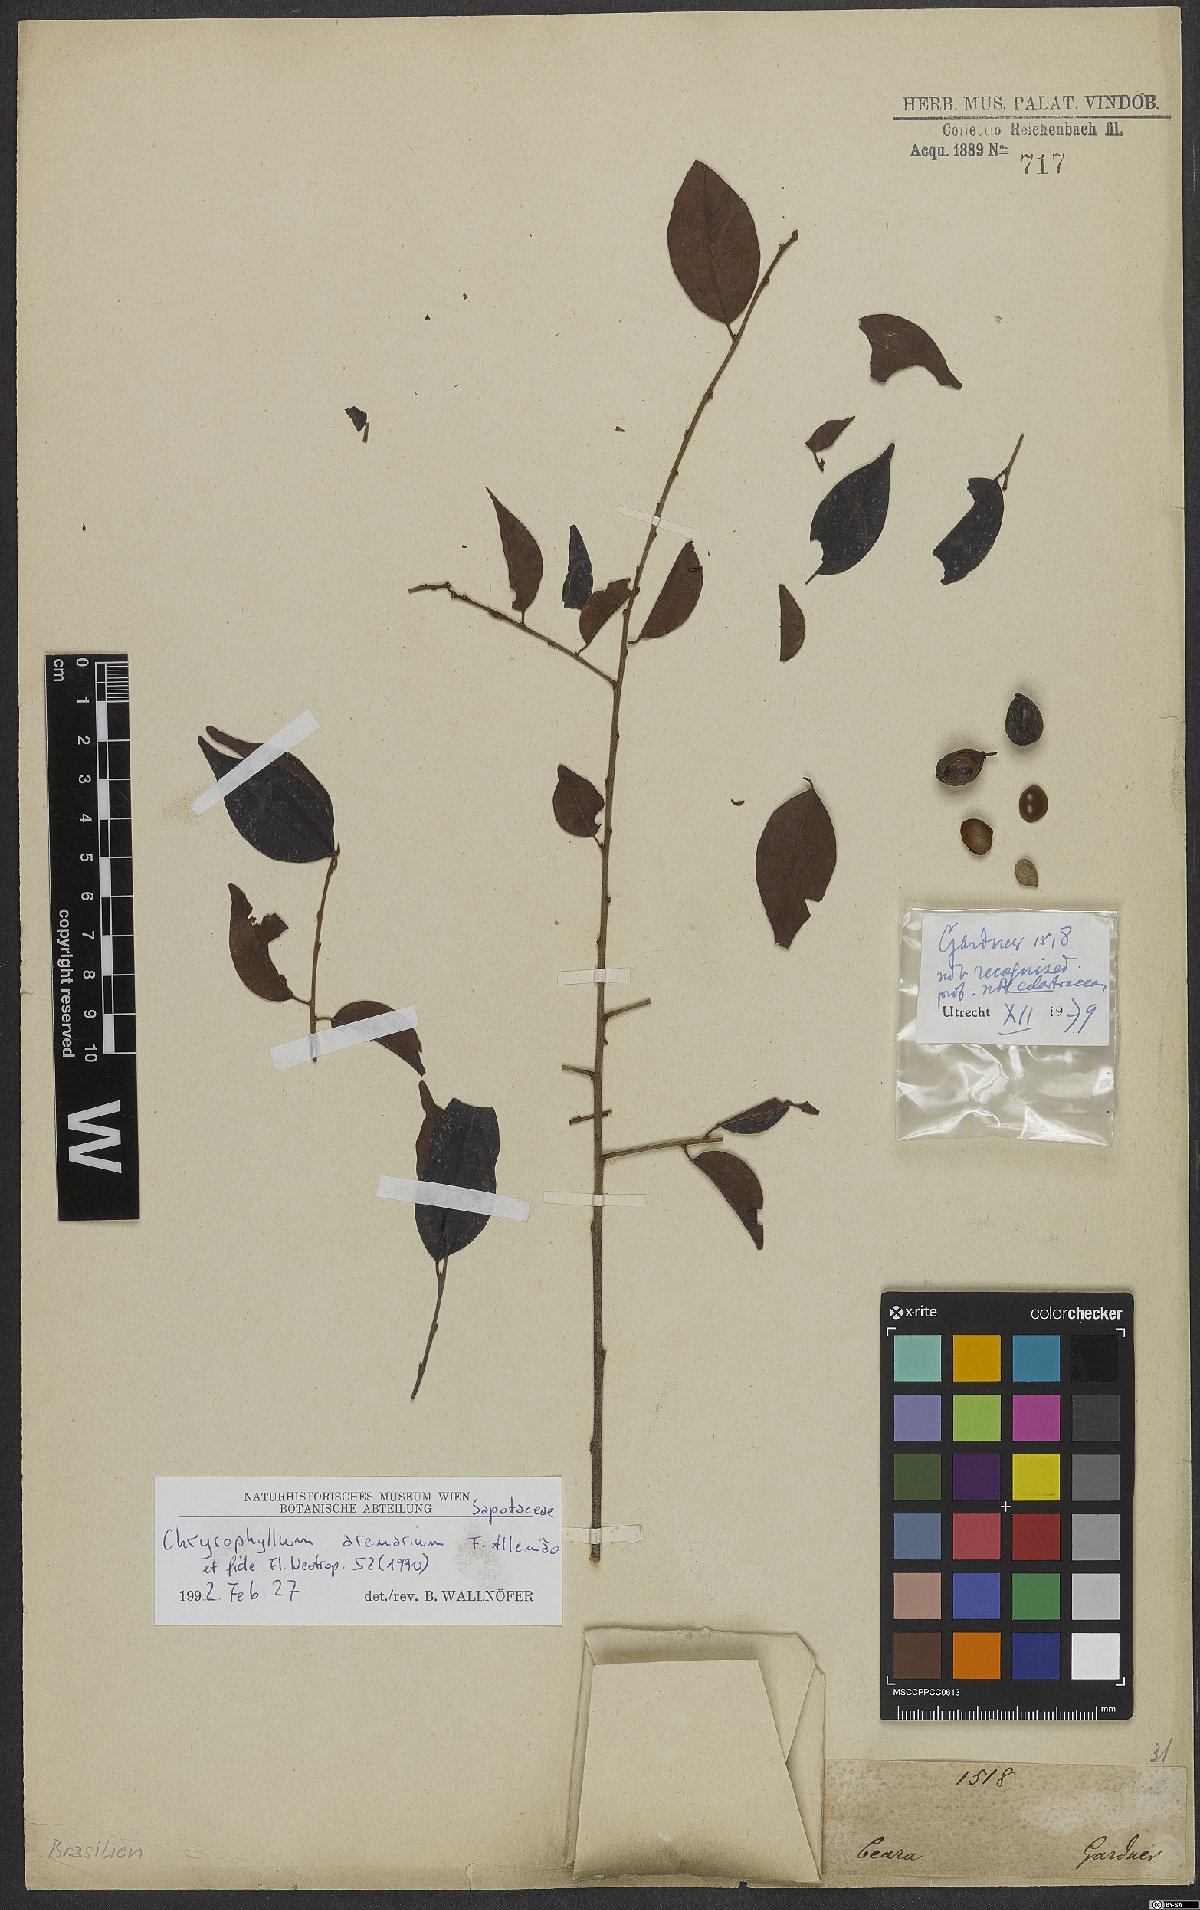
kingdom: Plantae
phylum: Tracheophyta
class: Magnoliopsida
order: Ericales
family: Sapotaceae
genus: Chrysophyllum
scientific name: Chrysophyllum arenarium
